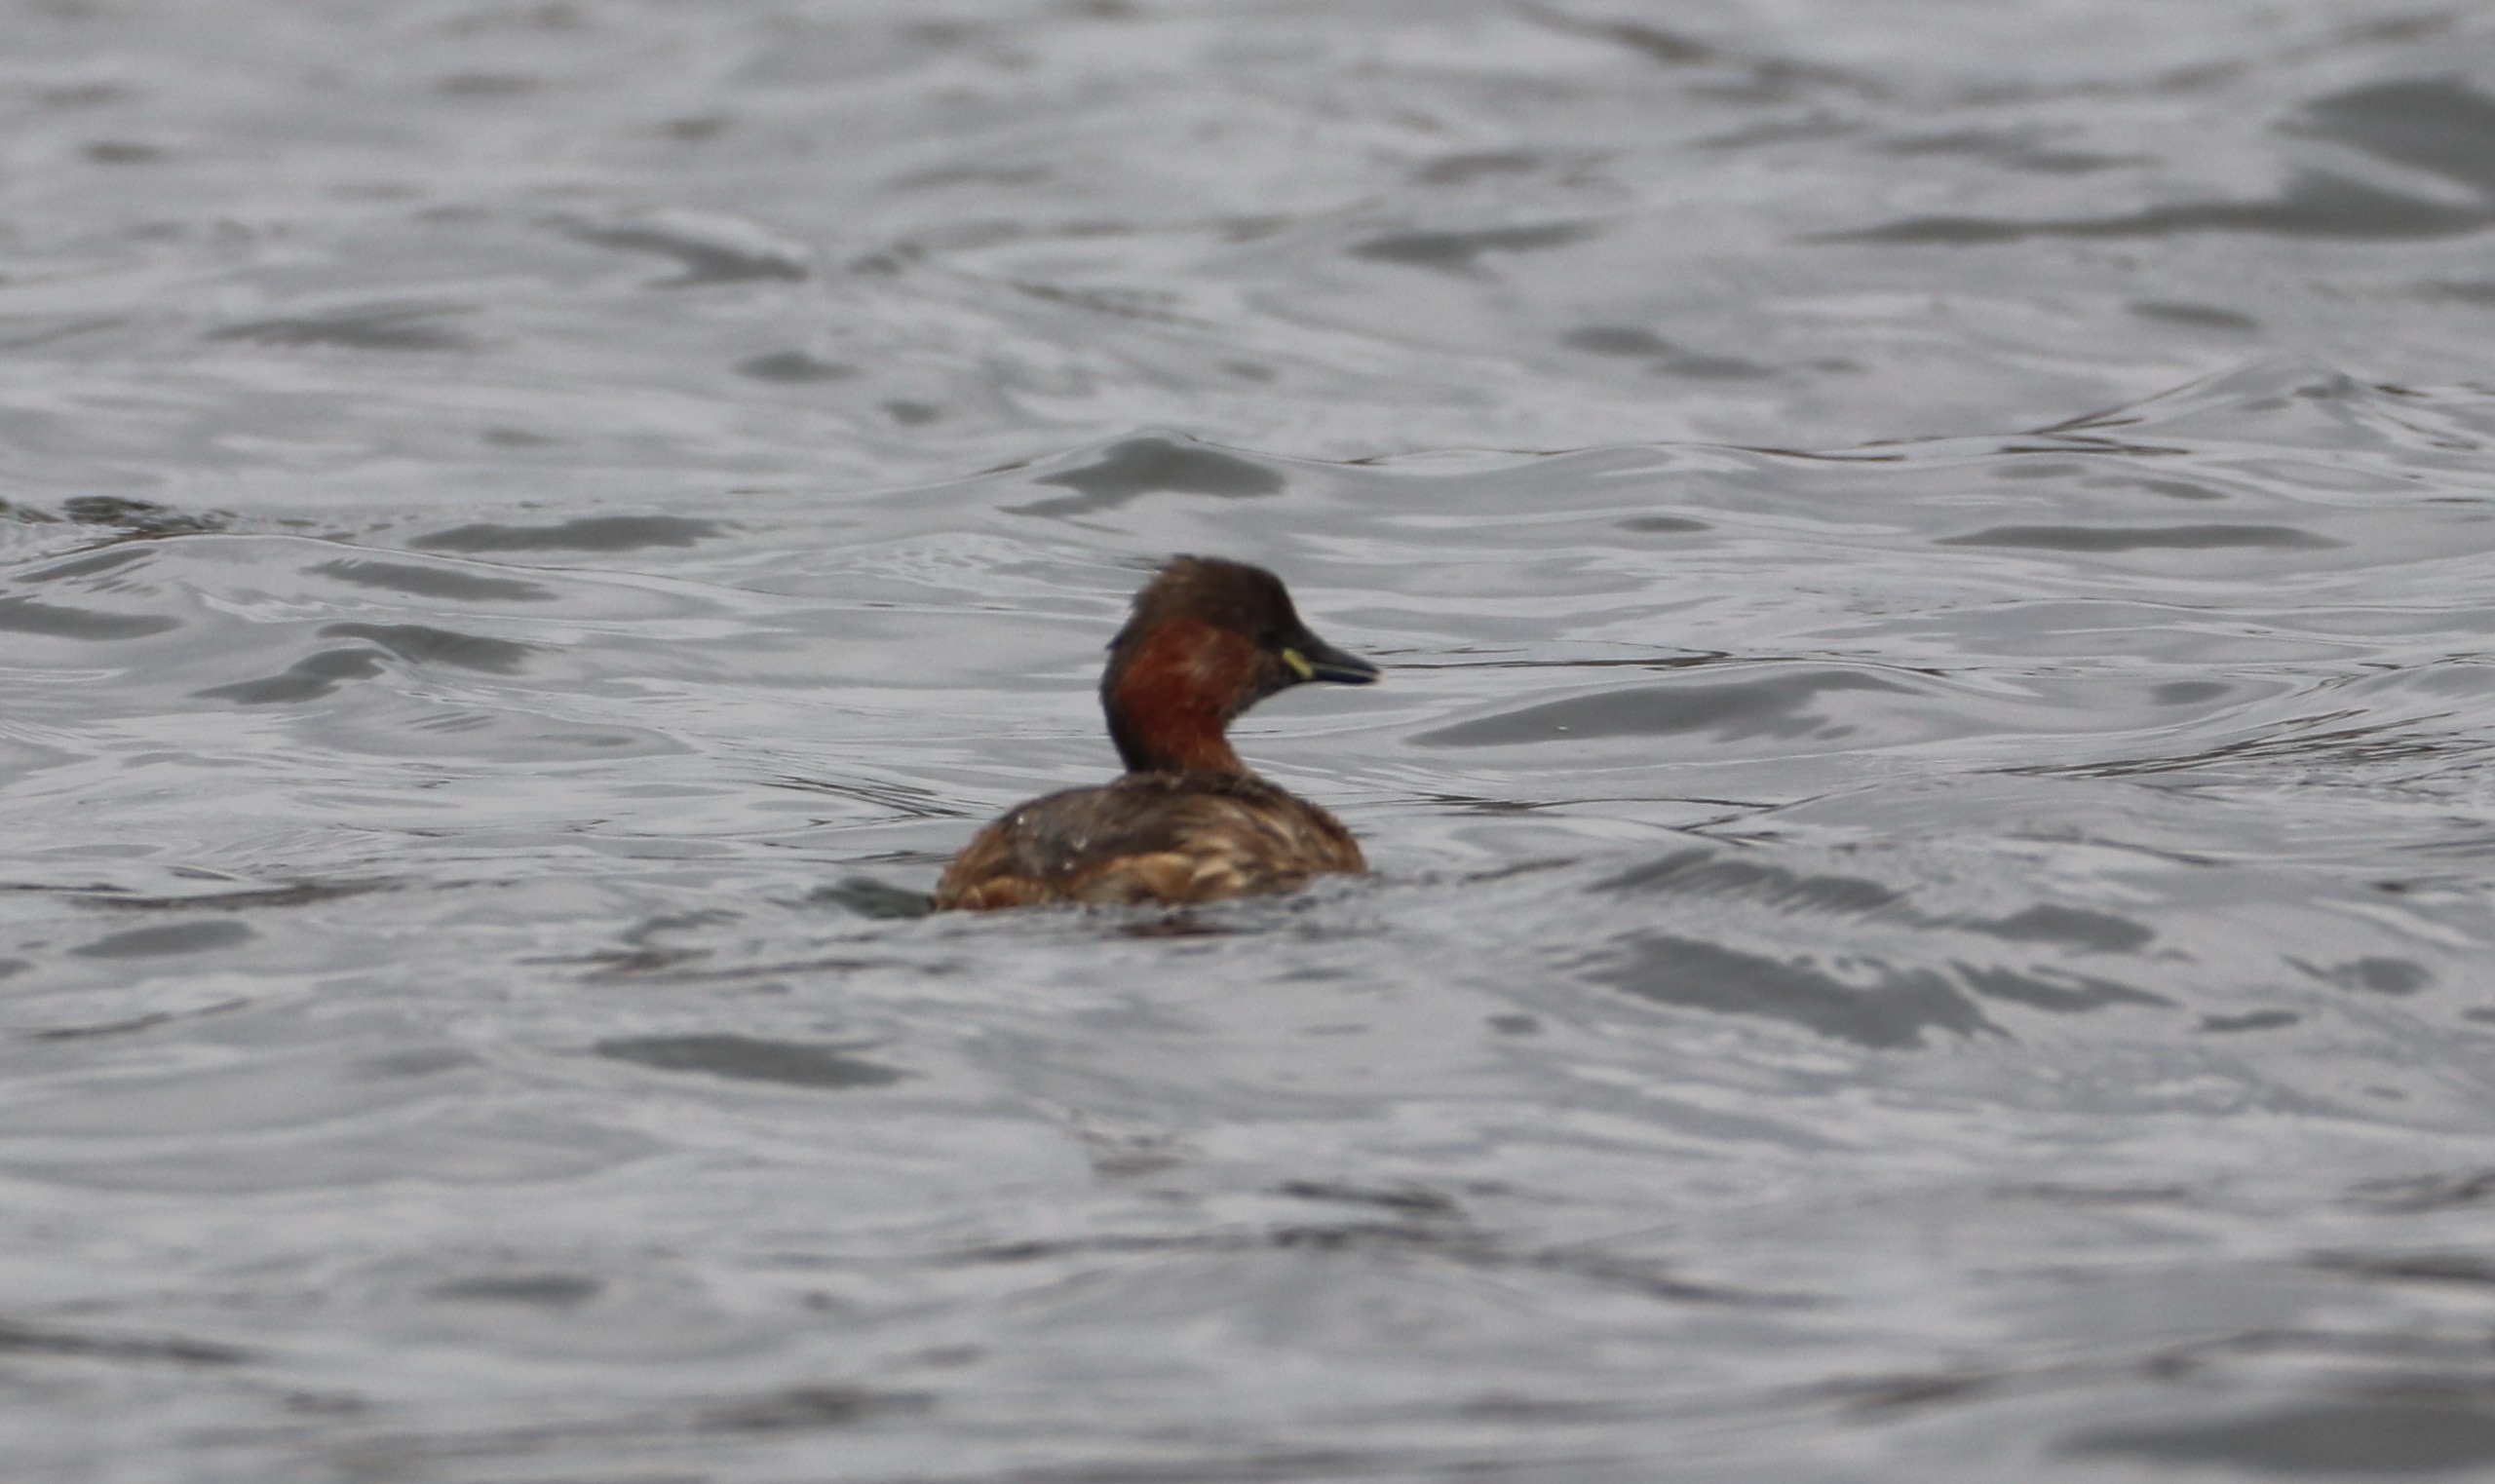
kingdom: Animalia
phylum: Chordata
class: Aves
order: Podicipediformes
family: Podicipedidae
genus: Tachybaptus
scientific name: Tachybaptus ruficollis
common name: Lille lappedykker
